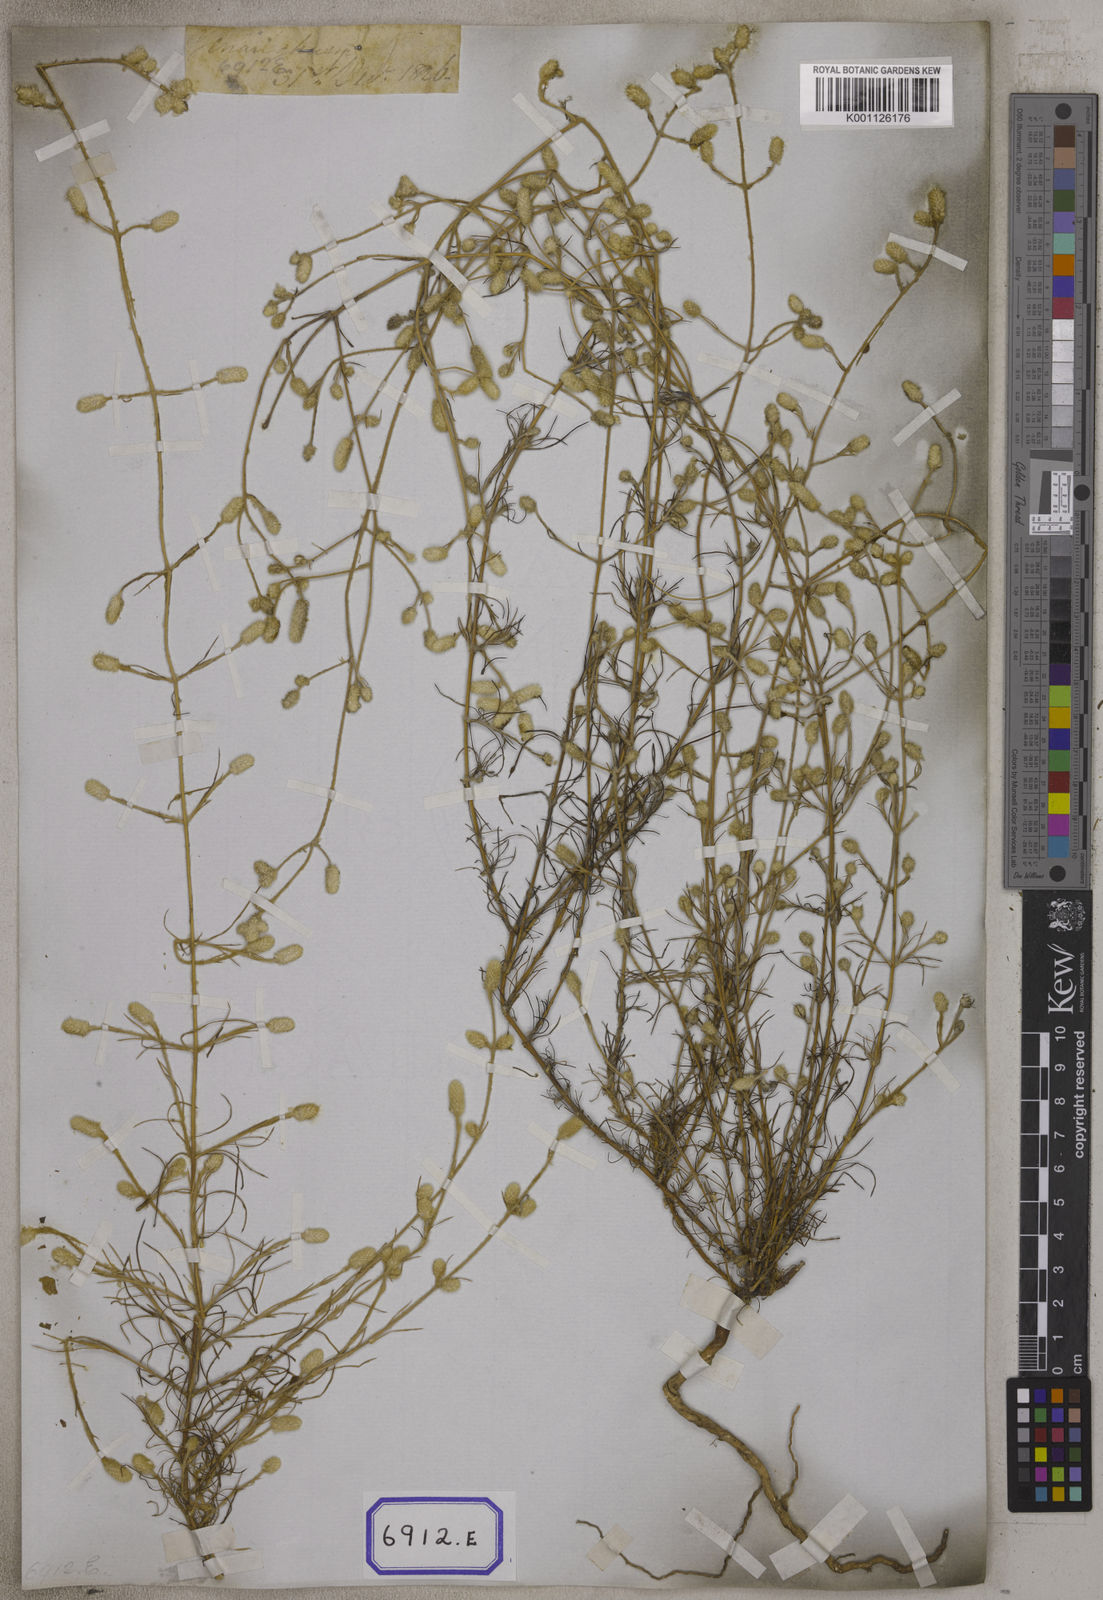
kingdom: Plantae
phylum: Tracheophyta
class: Magnoliopsida
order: Caryophyllales
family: Amaranthaceae
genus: Aerva
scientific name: Aerva
